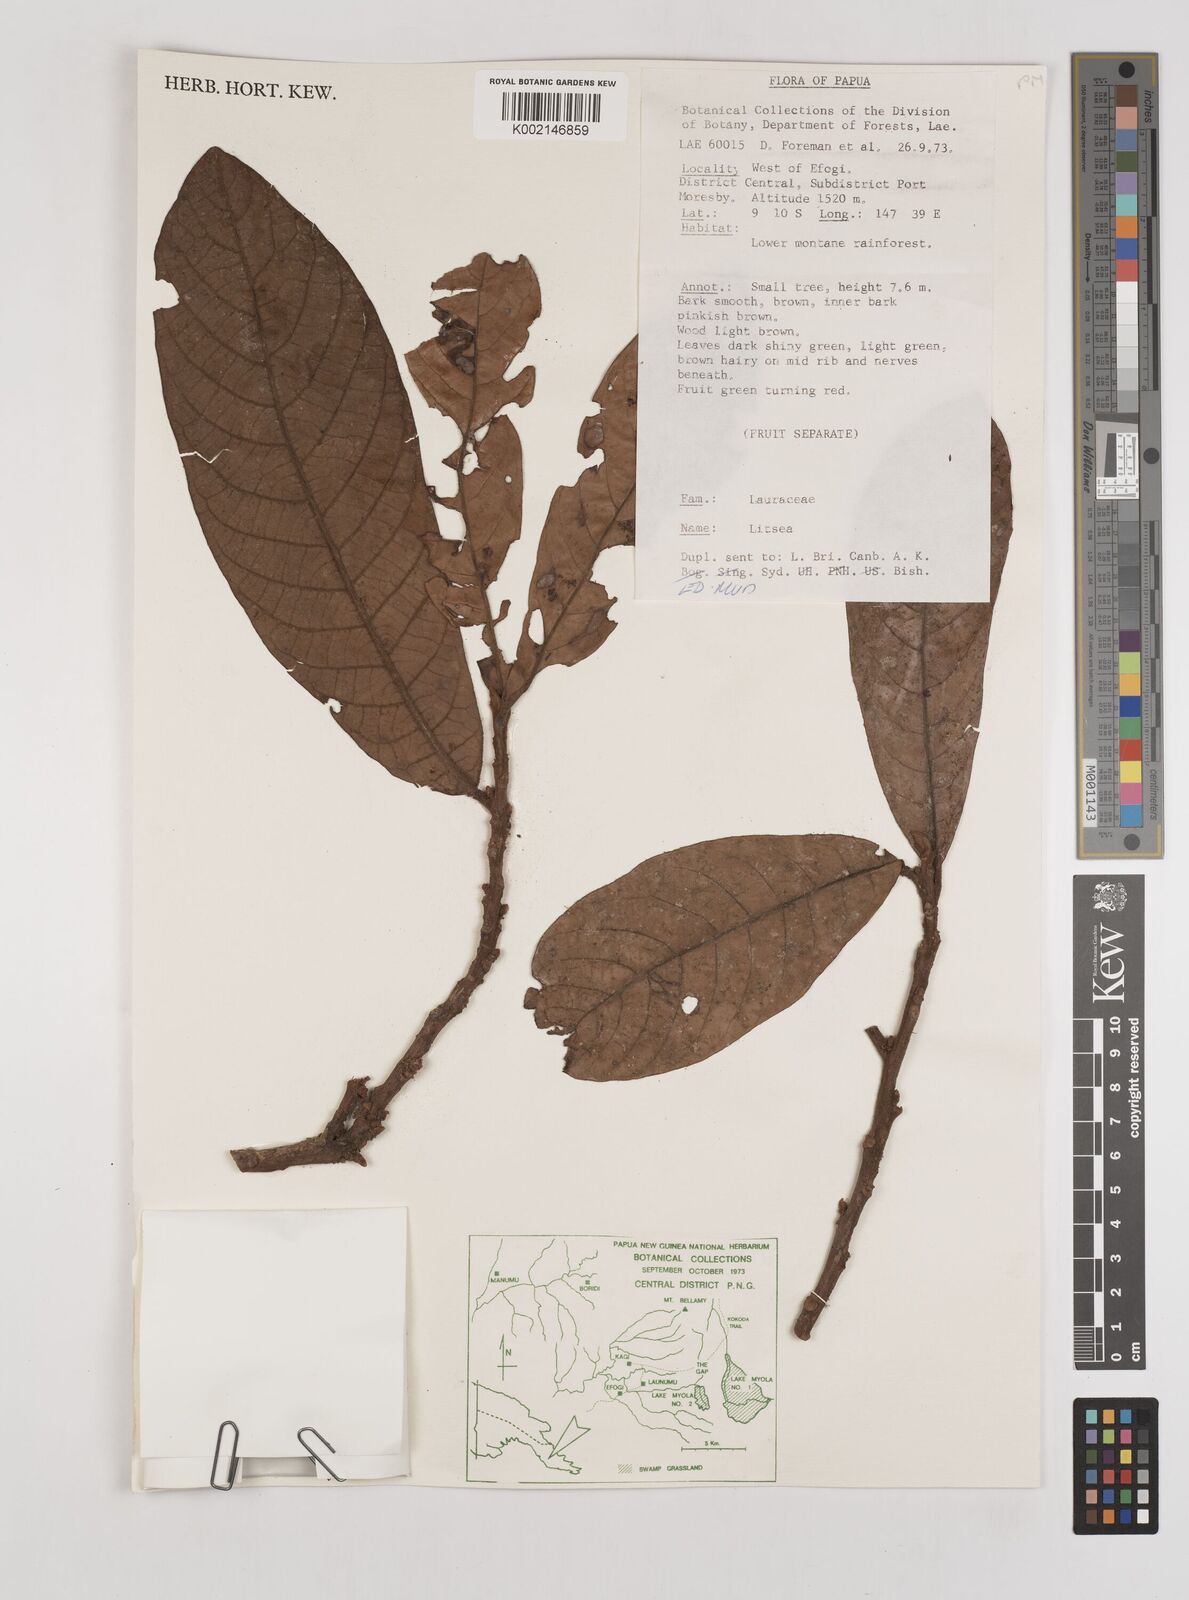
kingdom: Plantae
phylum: Tracheophyta
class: Magnoliopsida
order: Laurales
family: Lauraceae
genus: Litsea
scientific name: Litsea
